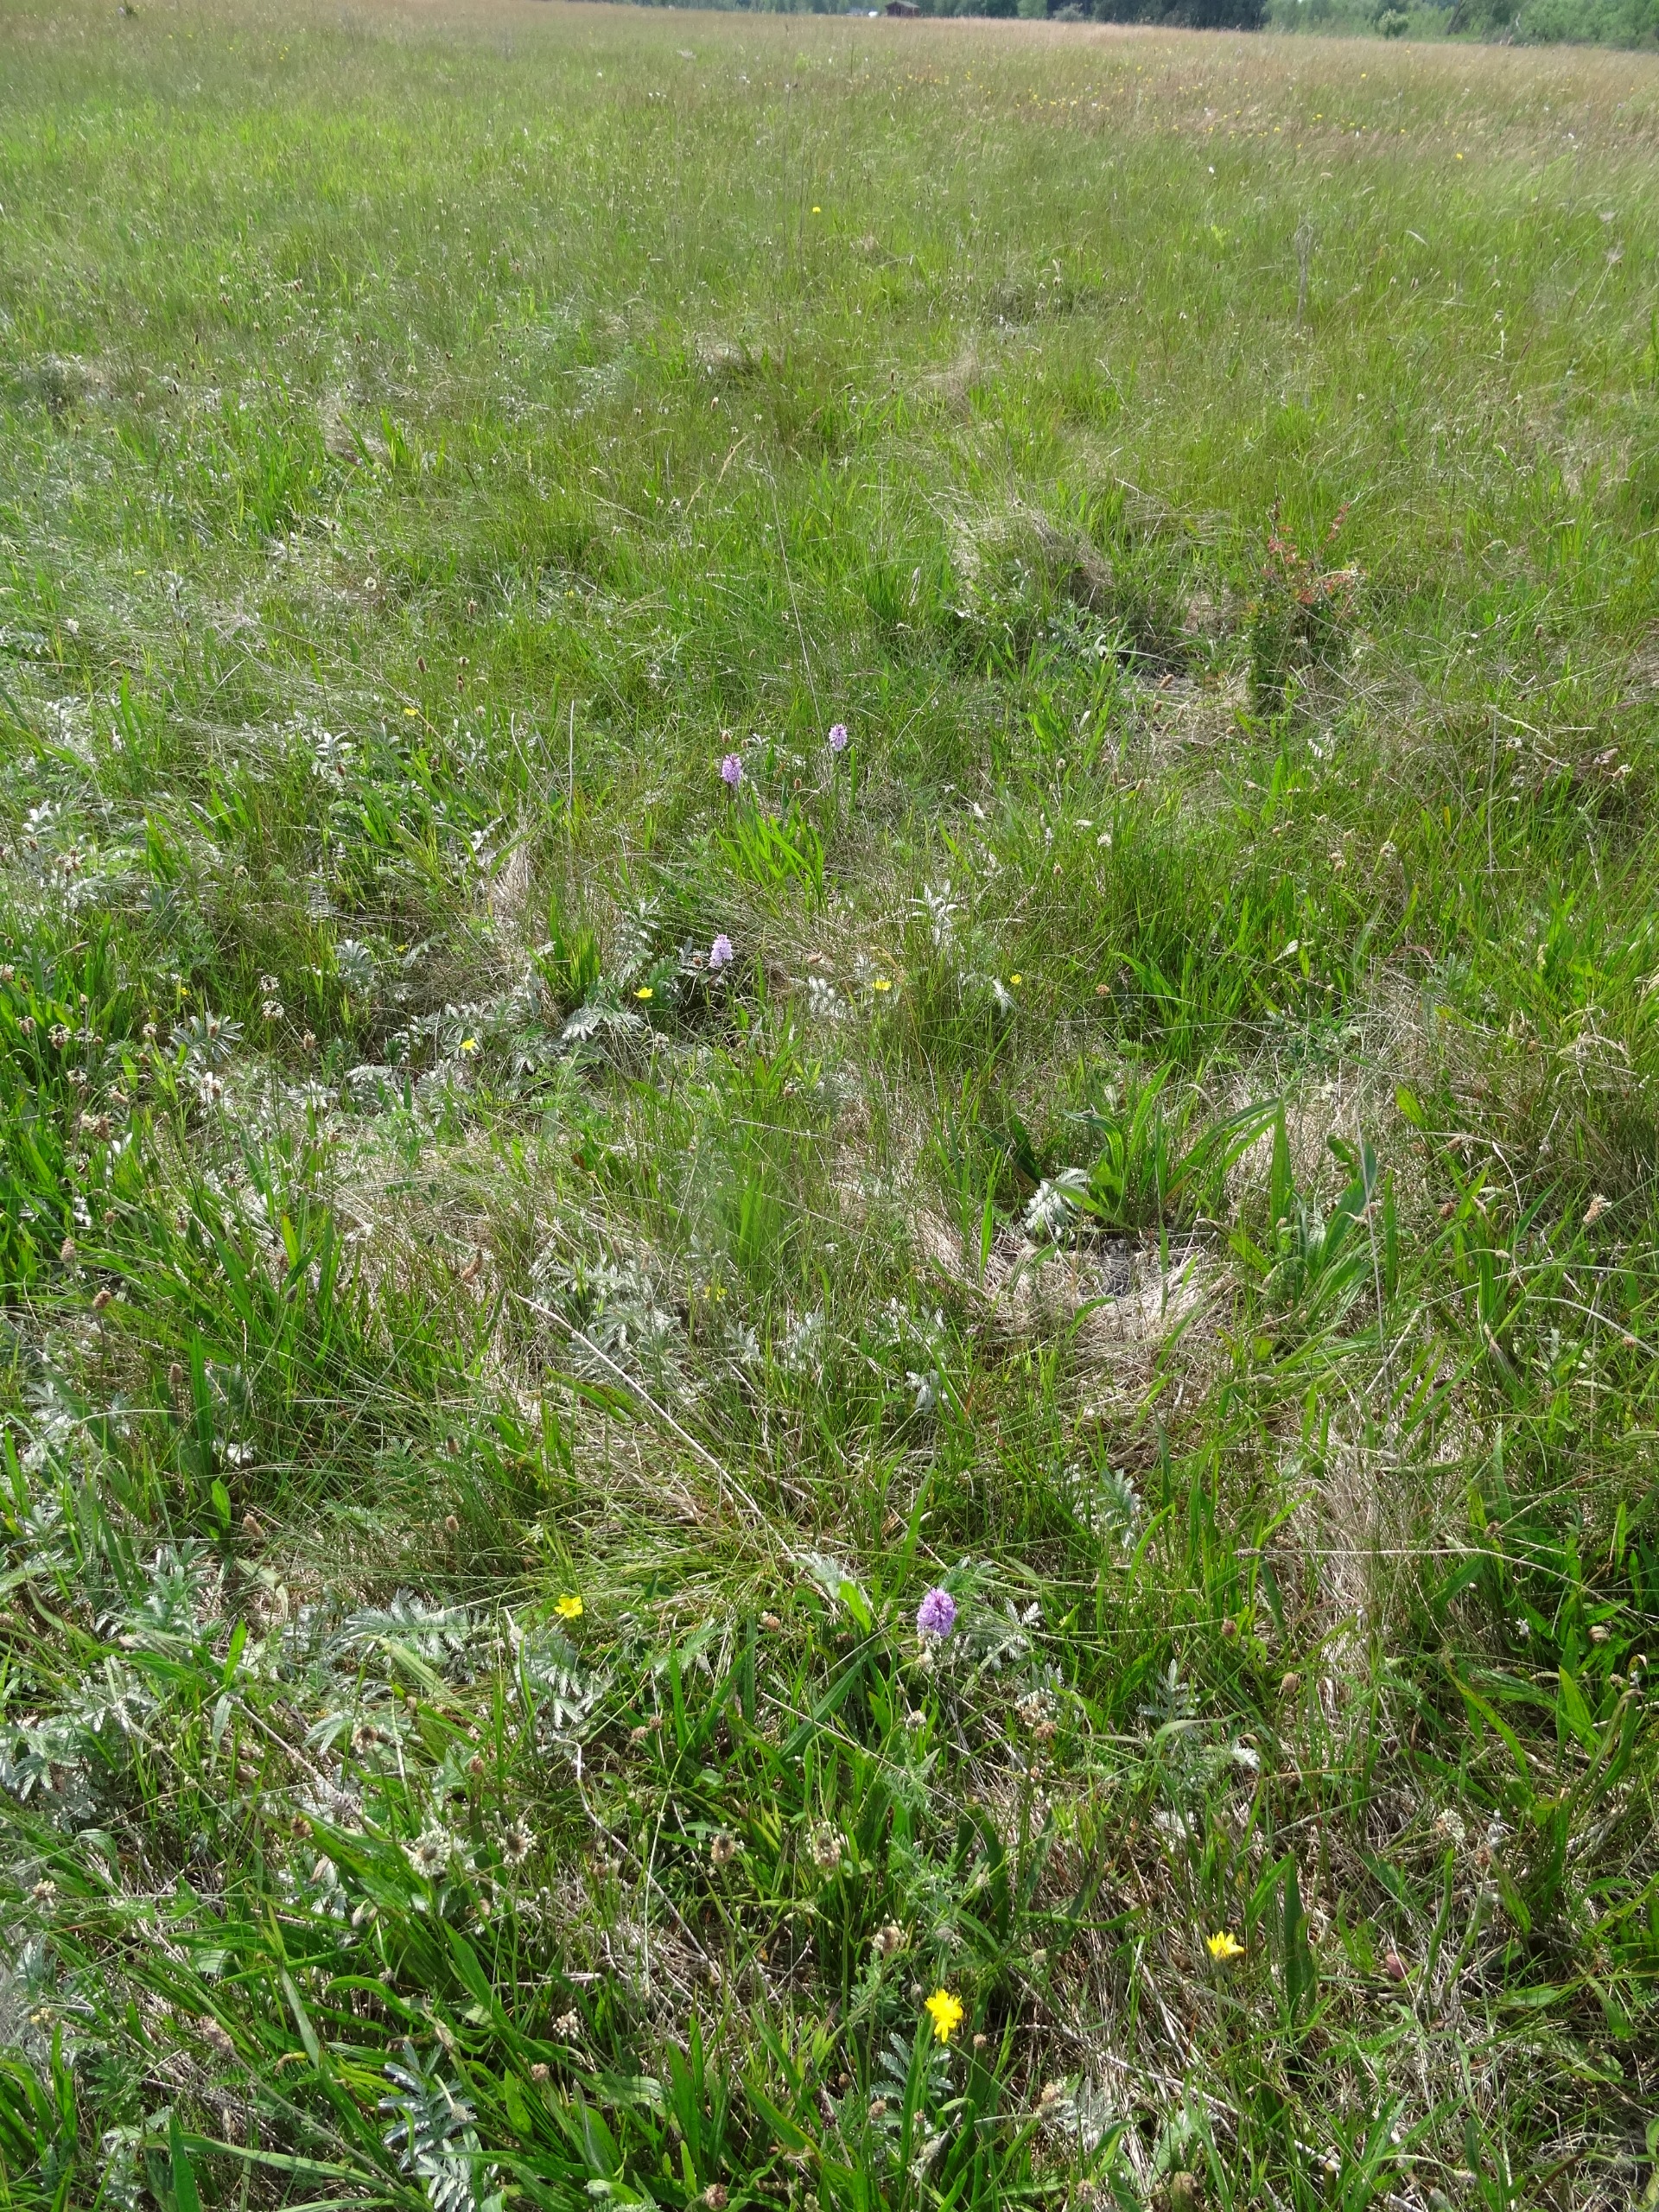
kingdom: Plantae
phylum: Tracheophyta
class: Liliopsida
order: Asparagales
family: Orchidaceae
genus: Dactylorhiza
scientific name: Dactylorhiza maculata
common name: Plettet gøgeurt
